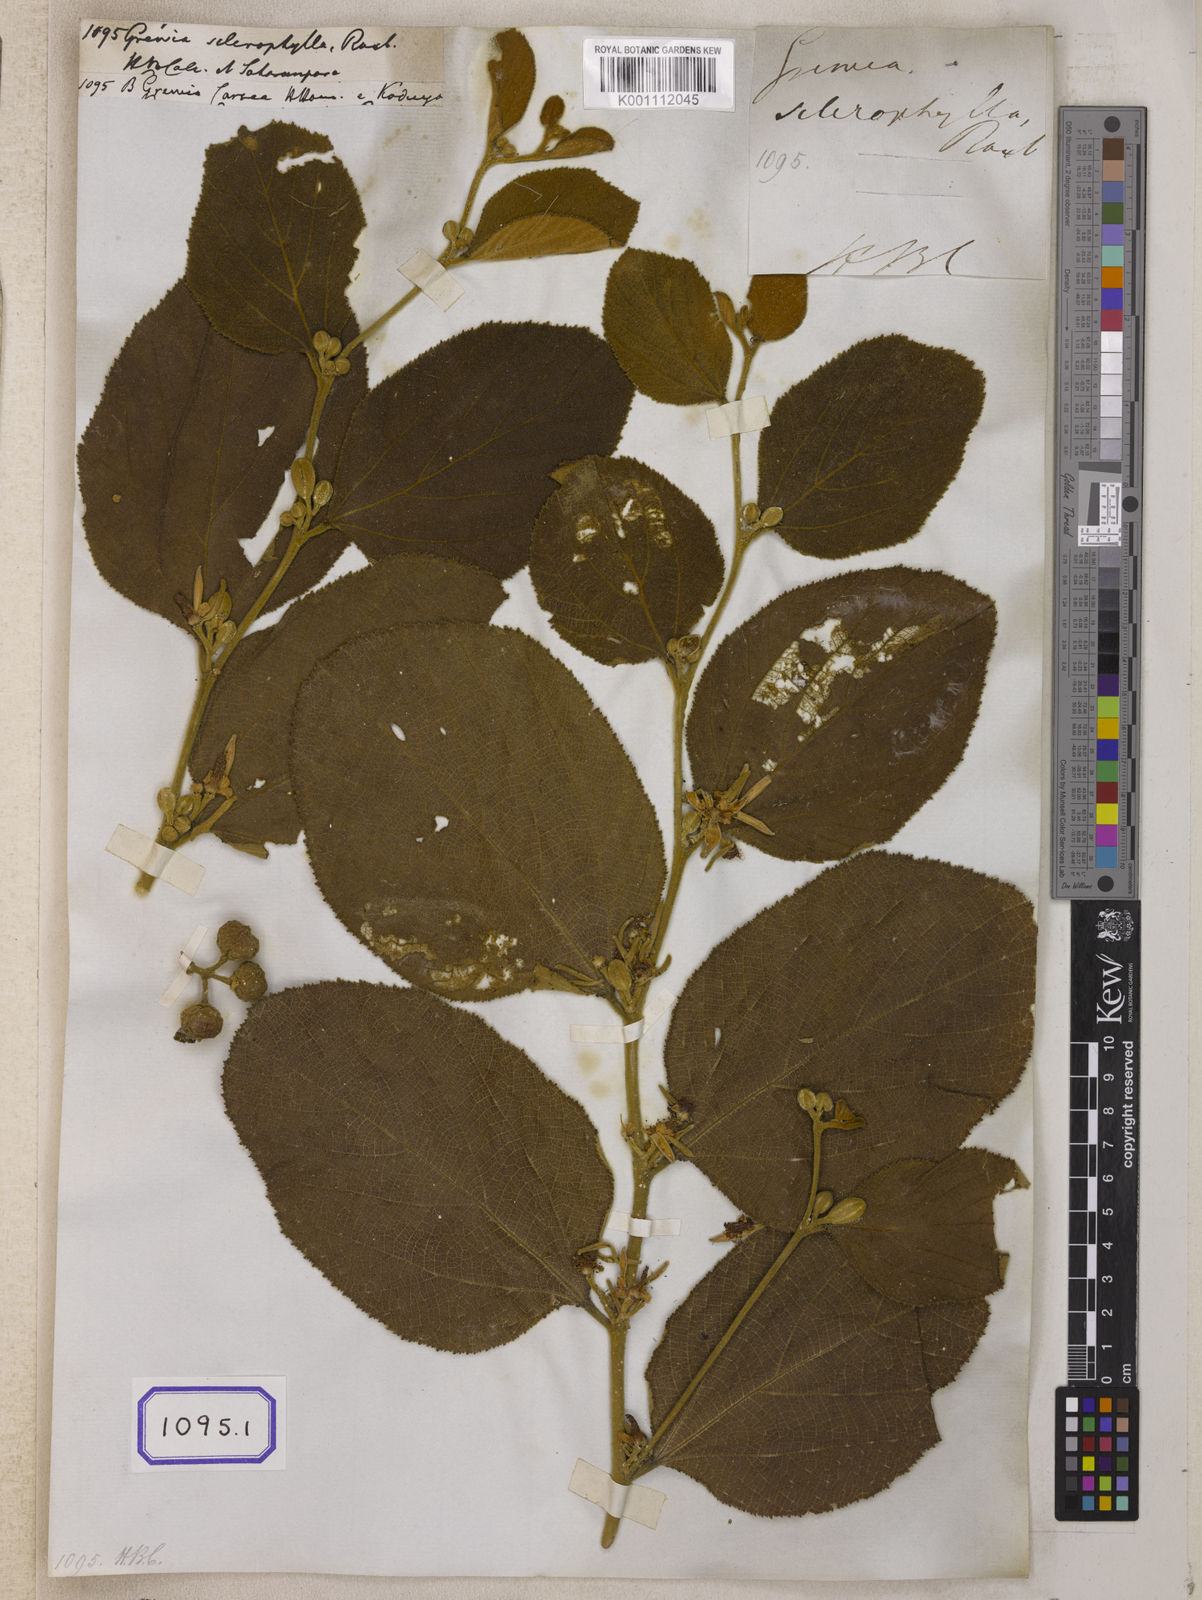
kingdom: Plantae
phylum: Tracheophyta
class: Magnoliopsida
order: Malvales
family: Malvaceae
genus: Grewia
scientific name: Grewia
